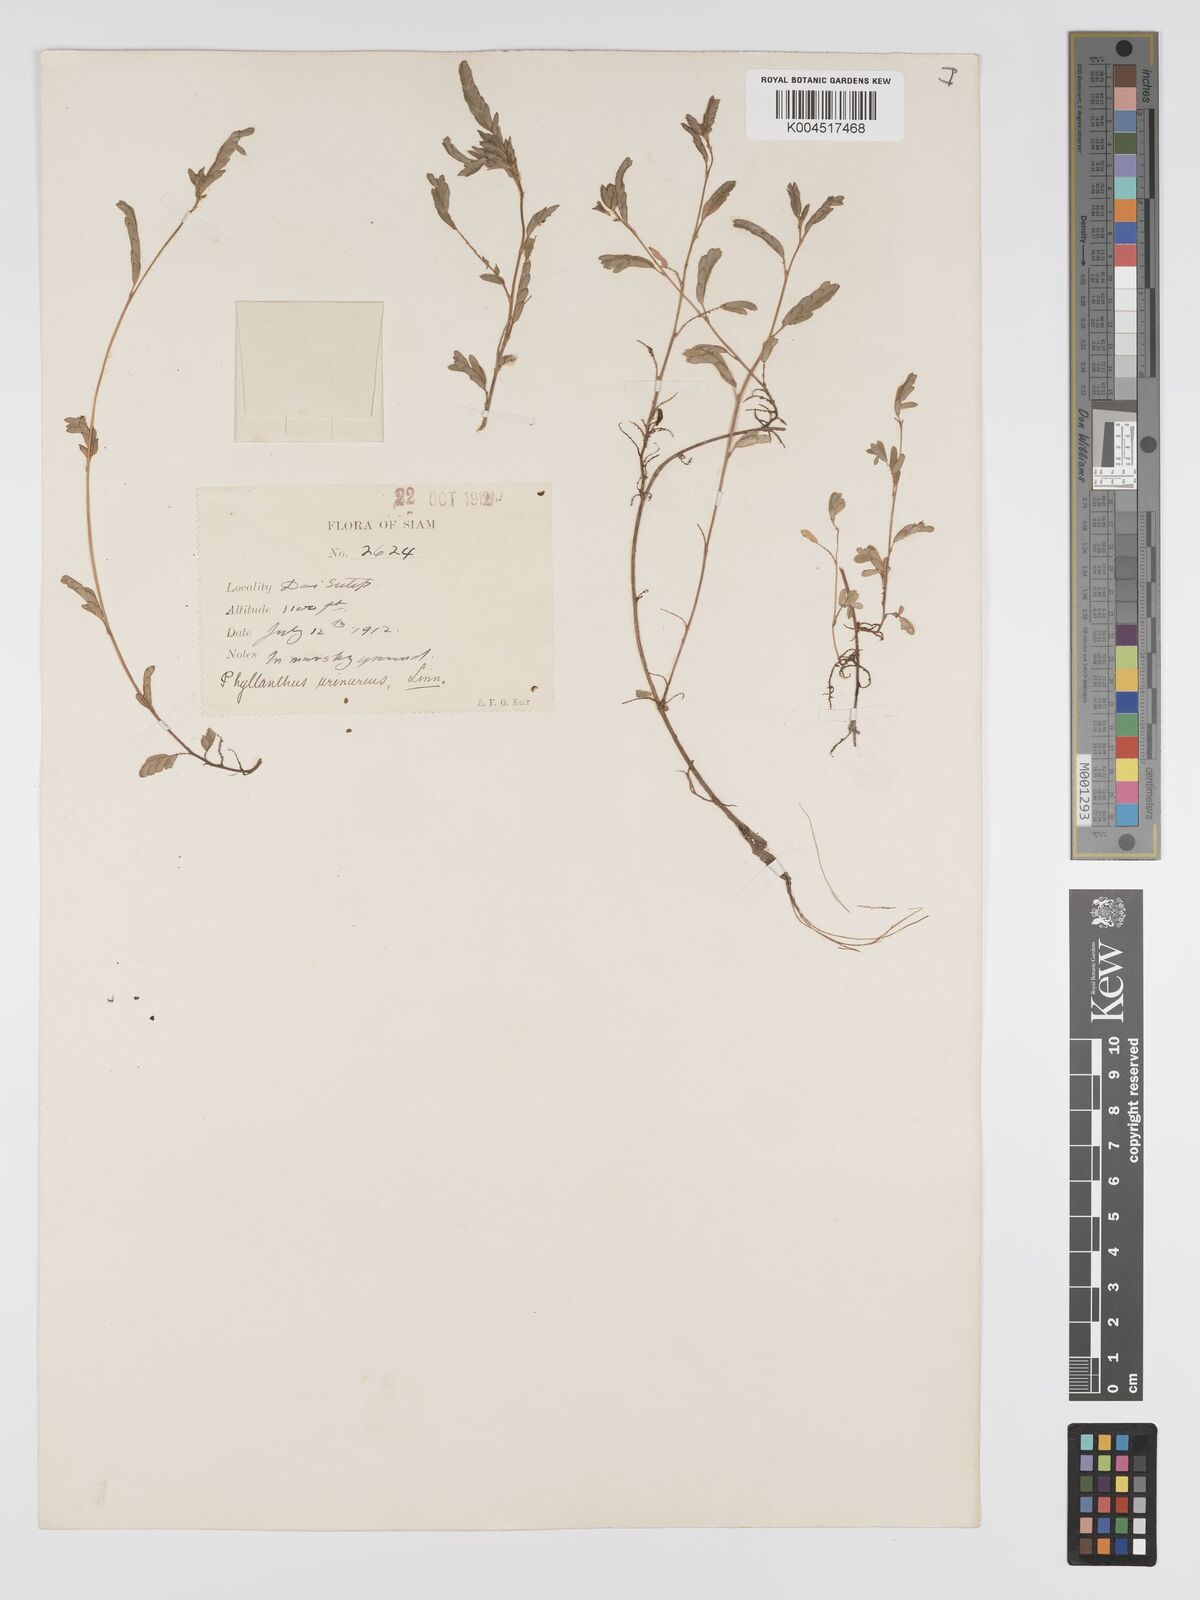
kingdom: Plantae
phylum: Tracheophyta
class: Magnoliopsida
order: Malpighiales
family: Phyllanthaceae
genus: Phyllanthus
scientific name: Phyllanthus urinaria
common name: Chamber bitter
